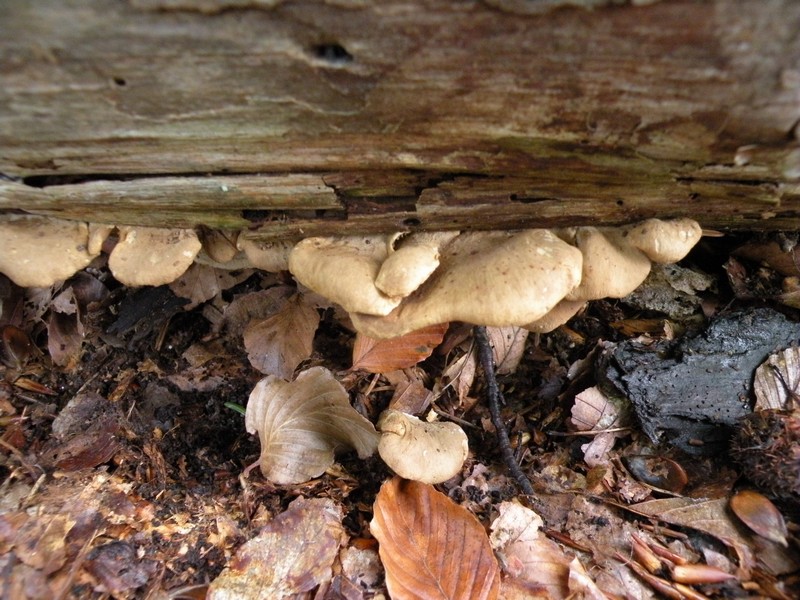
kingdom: Fungi
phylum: Basidiomycota
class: Agaricomycetes
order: Boletales
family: Tapinellaceae
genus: Tapinella
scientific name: Tapinella panuoides
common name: tømmer-viftesvamp
